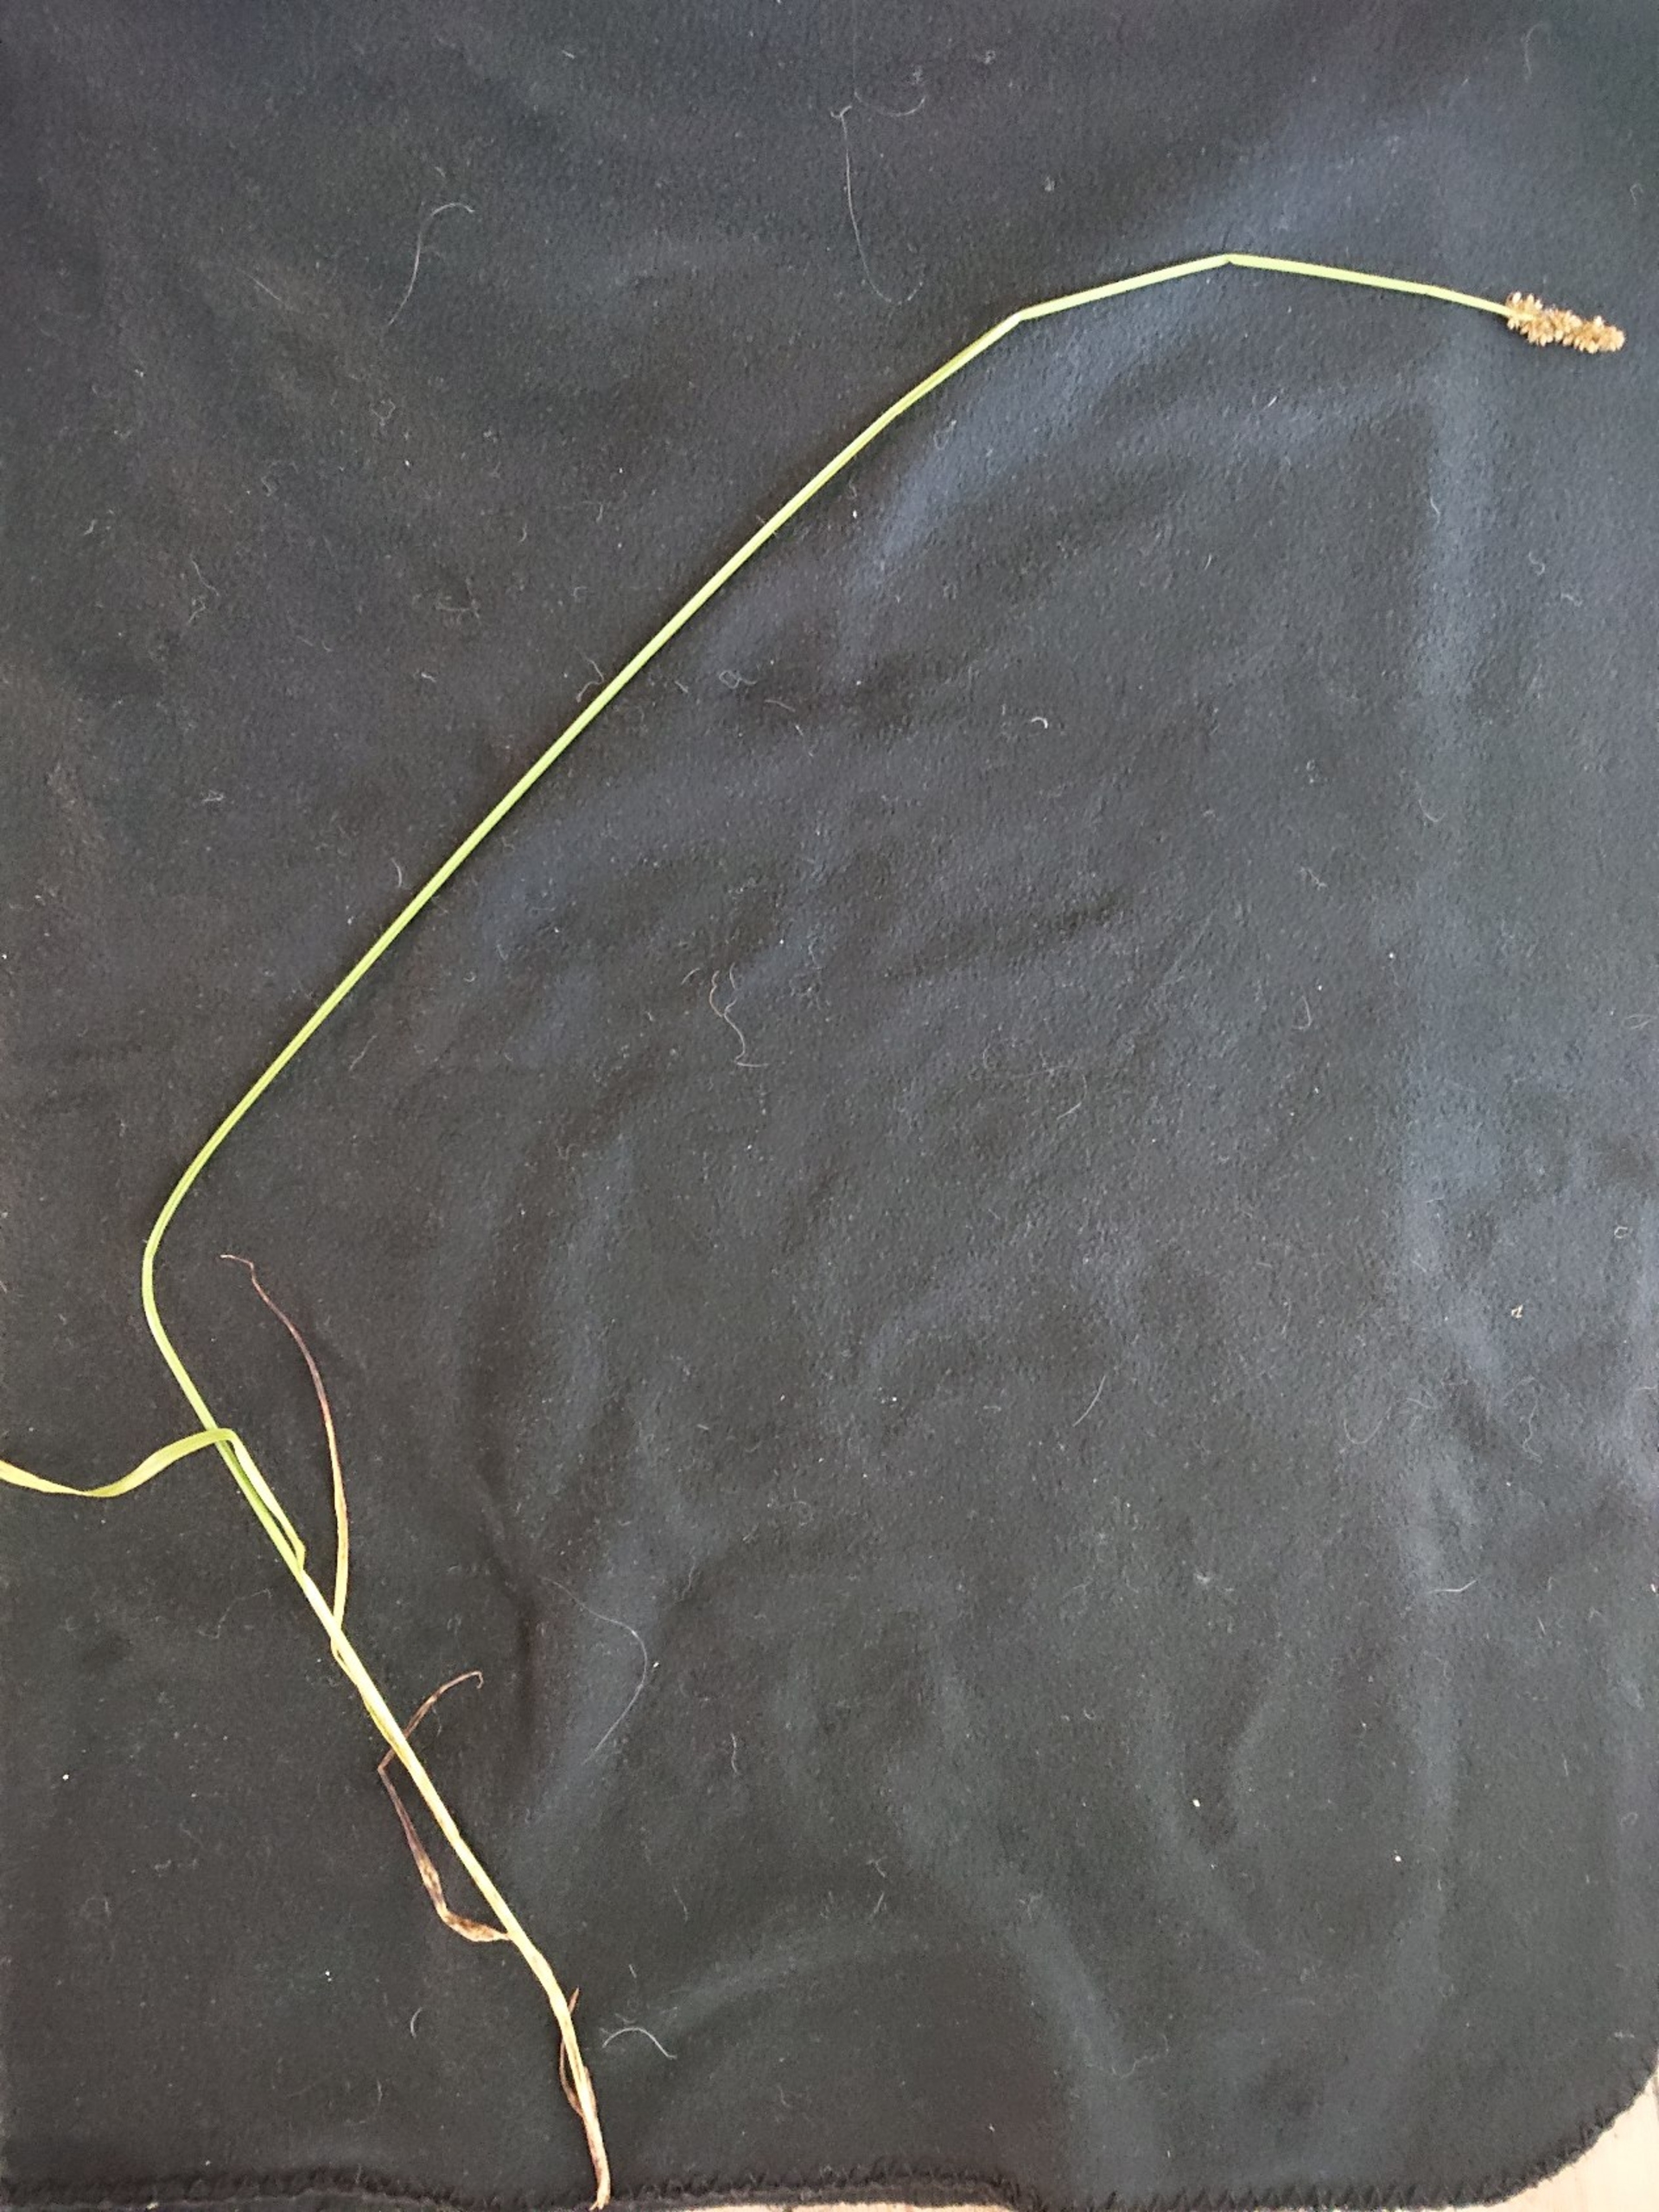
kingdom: Plantae
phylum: Tracheophyta
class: Liliopsida
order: Poales
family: Cyperaceae
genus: Carex
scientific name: Carex otrubae
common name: Sylt-star
